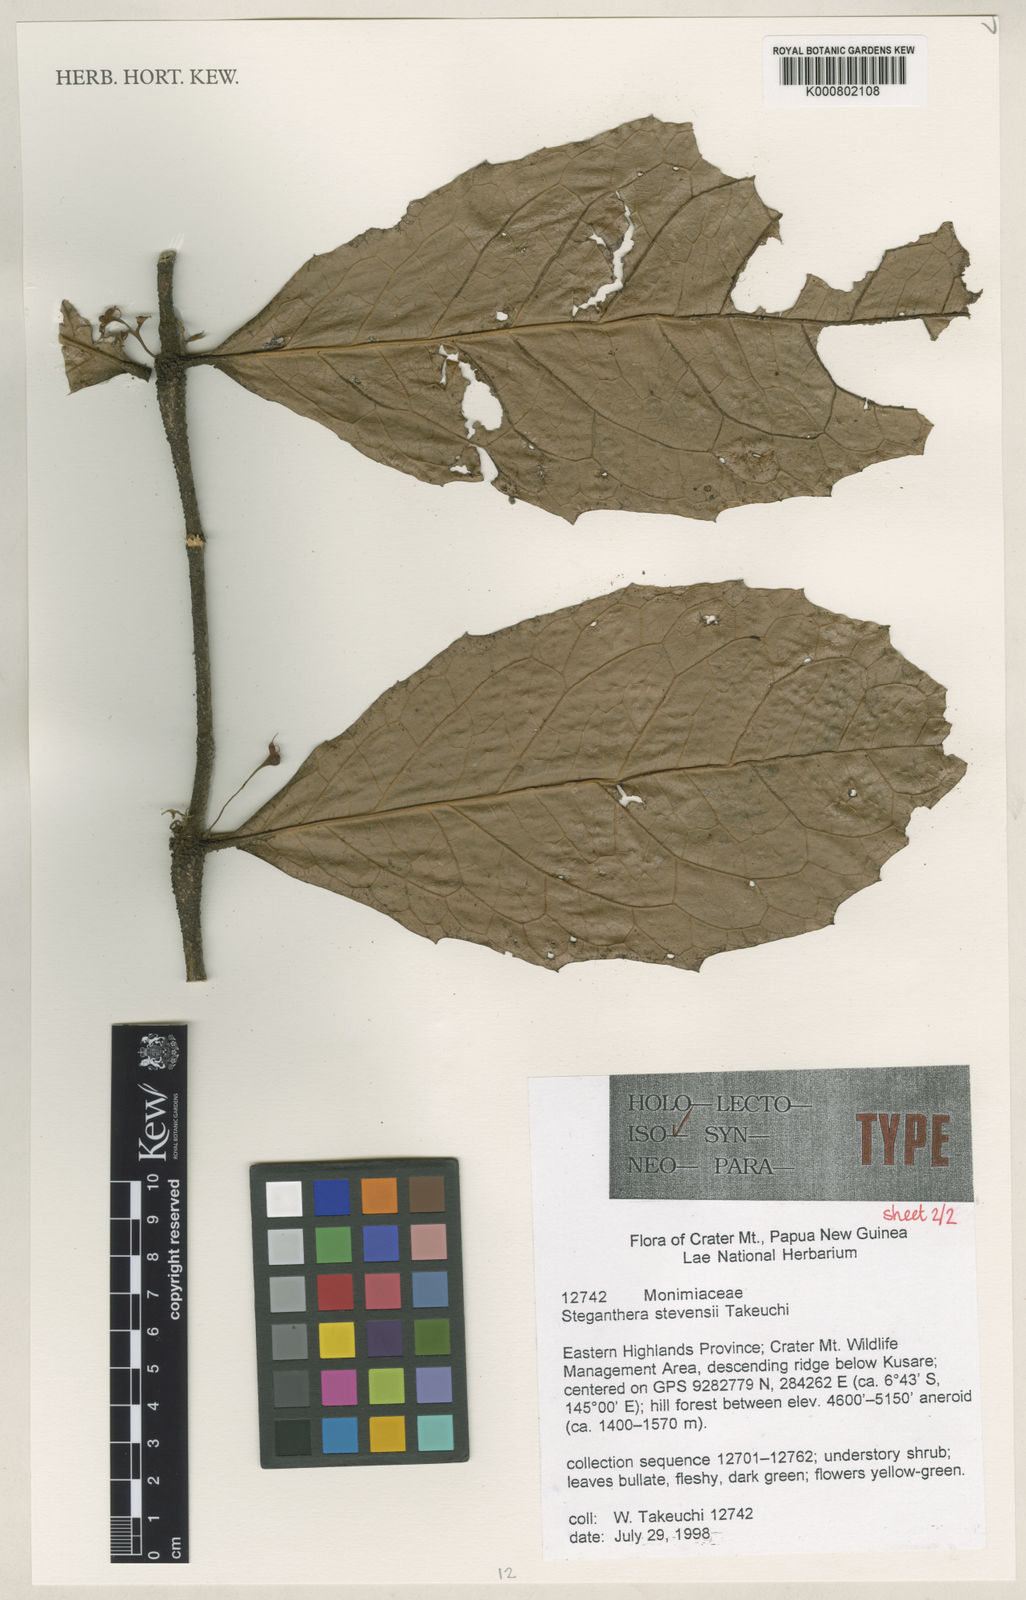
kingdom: Plantae
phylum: Tracheophyta
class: Magnoliopsida
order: Laurales
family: Monimiaceae
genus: Steganthera
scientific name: Steganthera stevensii
